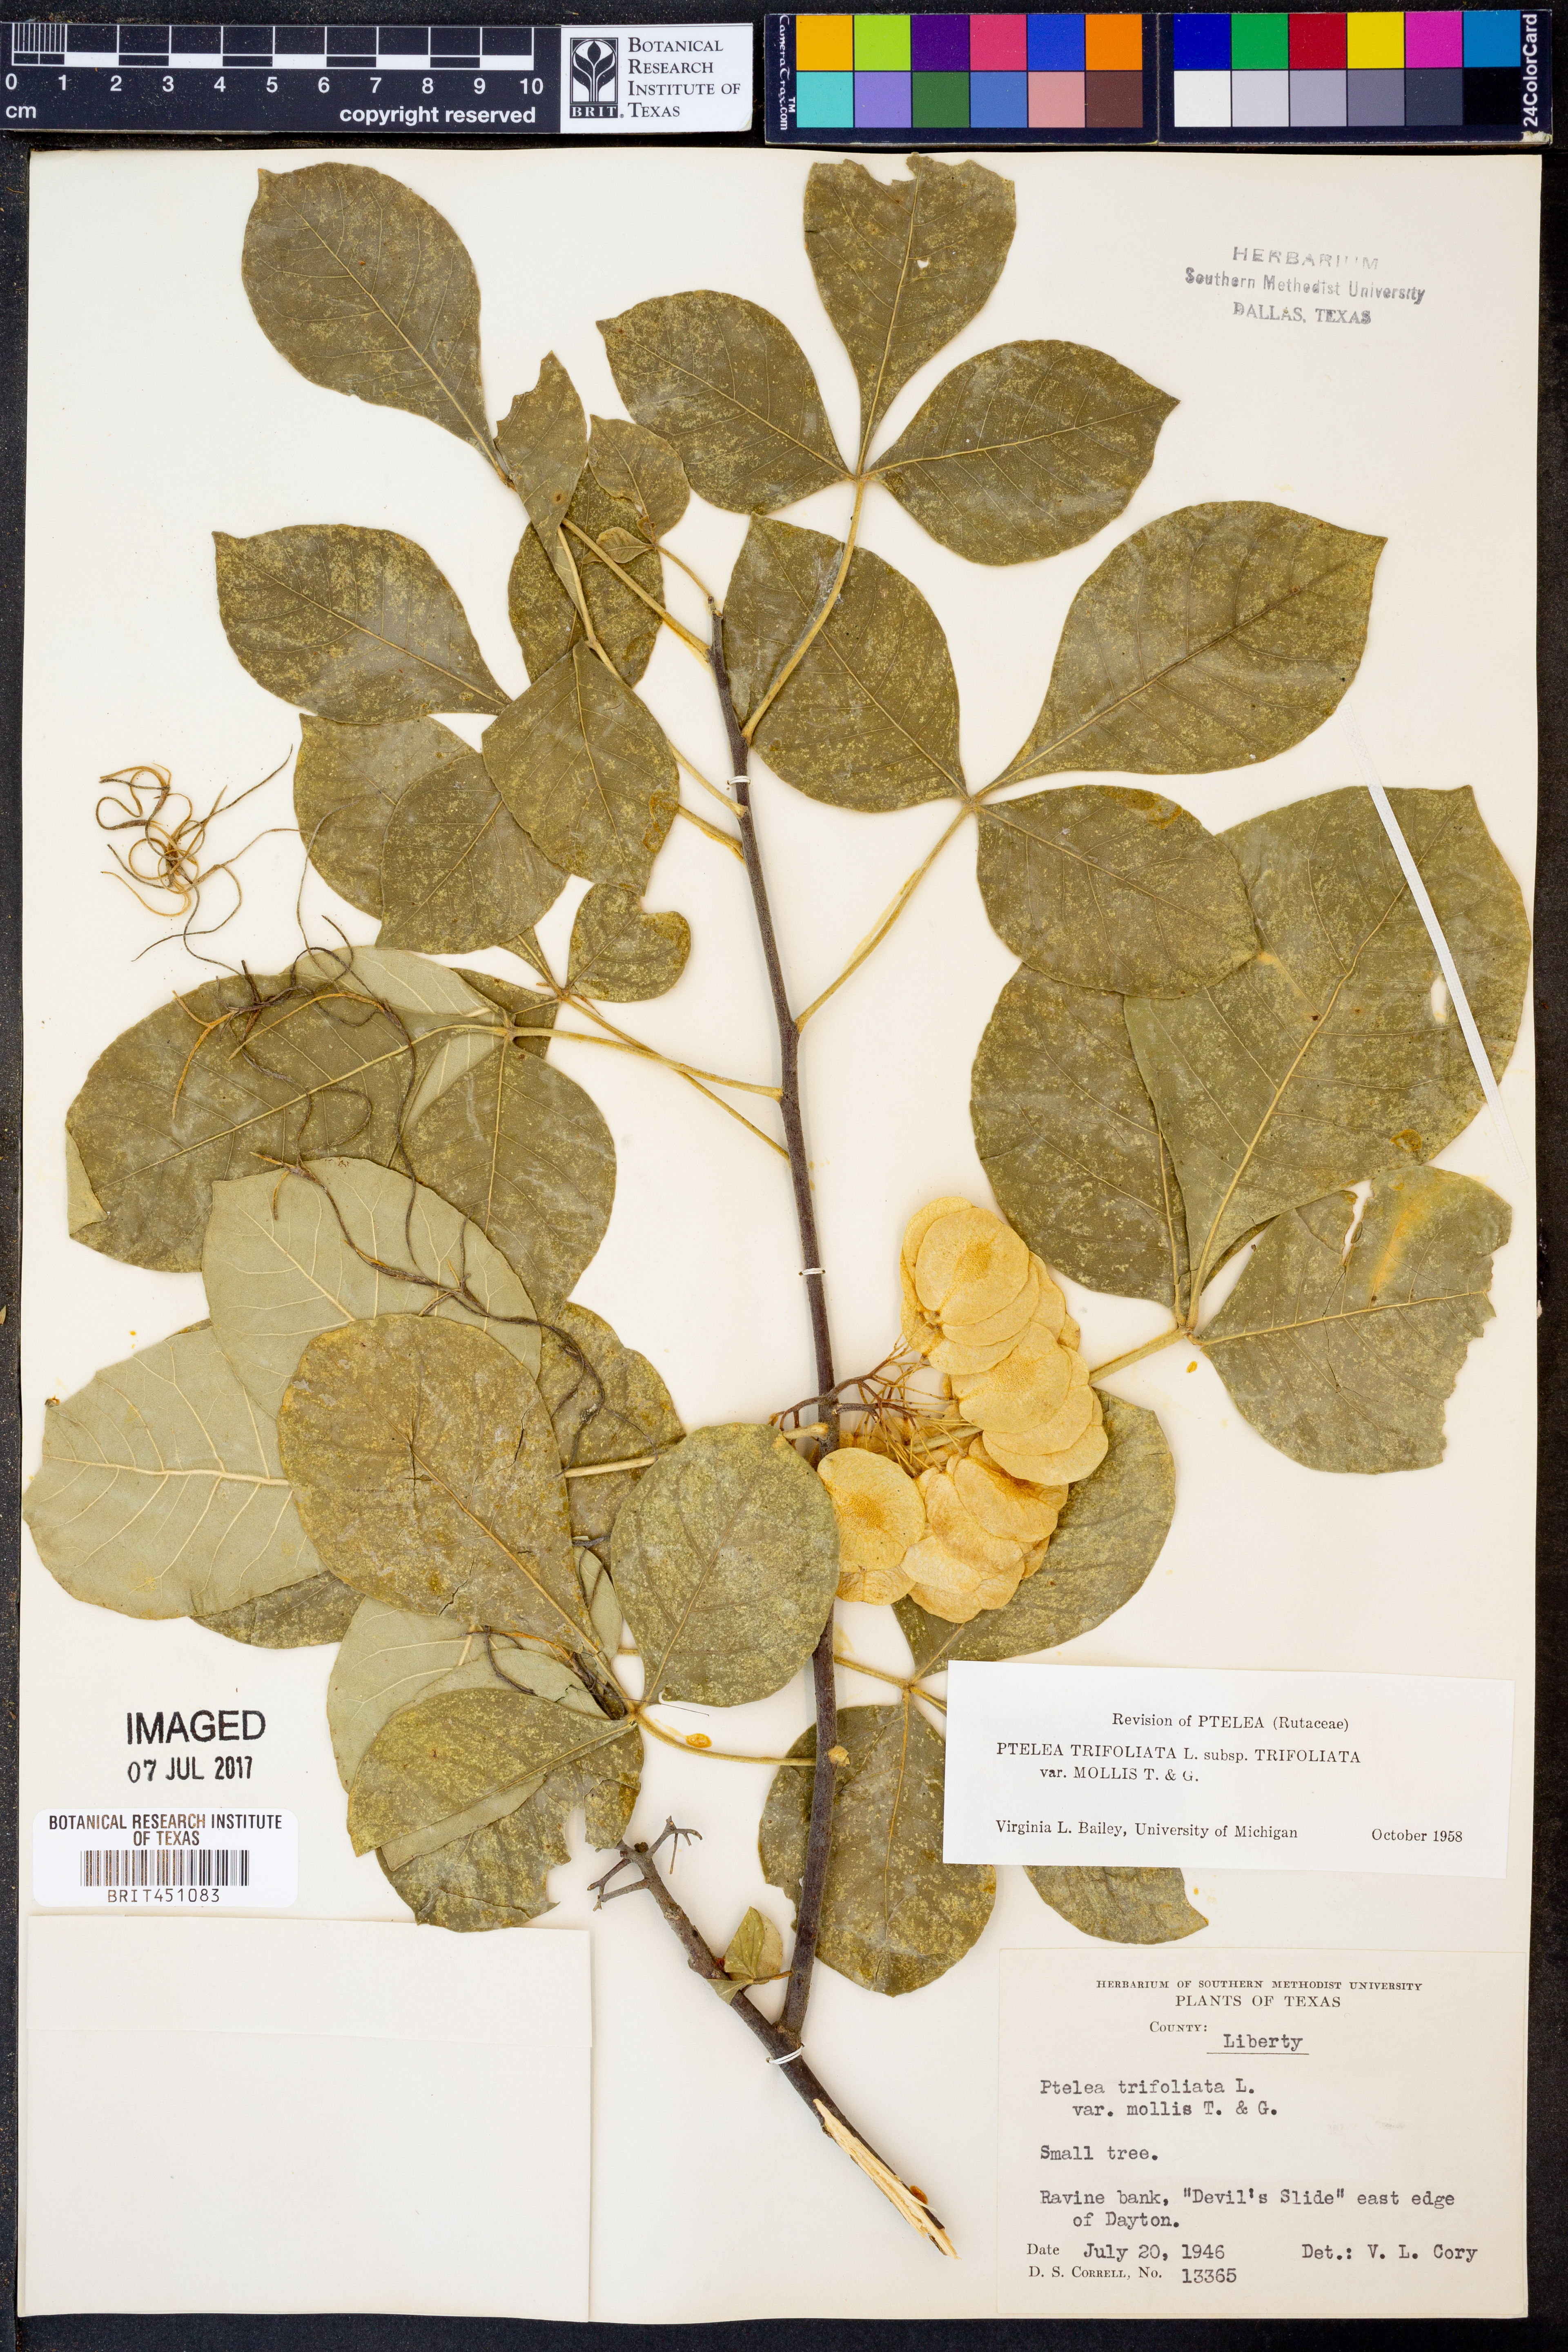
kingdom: Plantae
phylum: Tracheophyta
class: Magnoliopsida
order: Sapindales
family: Rutaceae
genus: Ptelea
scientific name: Ptelea trifoliata
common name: Common hop-tree
